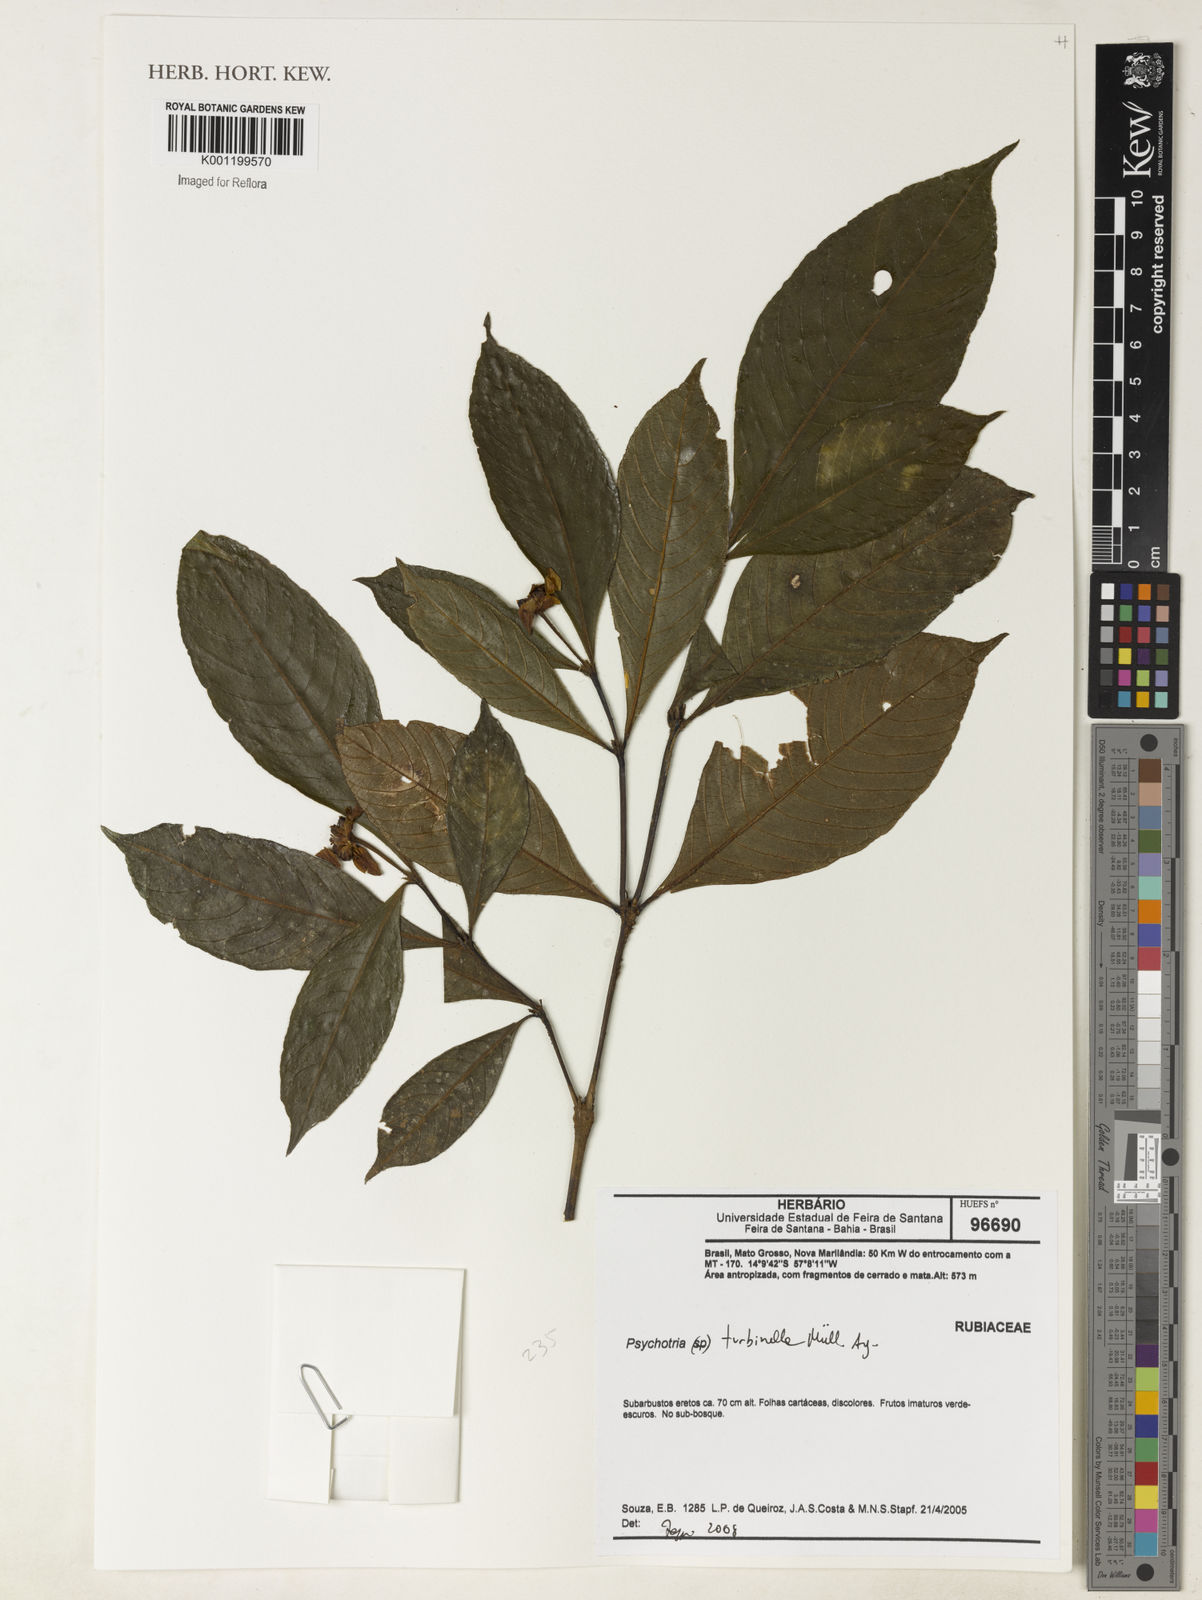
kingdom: Plantae
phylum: Tracheophyta
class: Magnoliopsida
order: Gentianales
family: Rubiaceae
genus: Psychotria
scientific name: Psychotria
